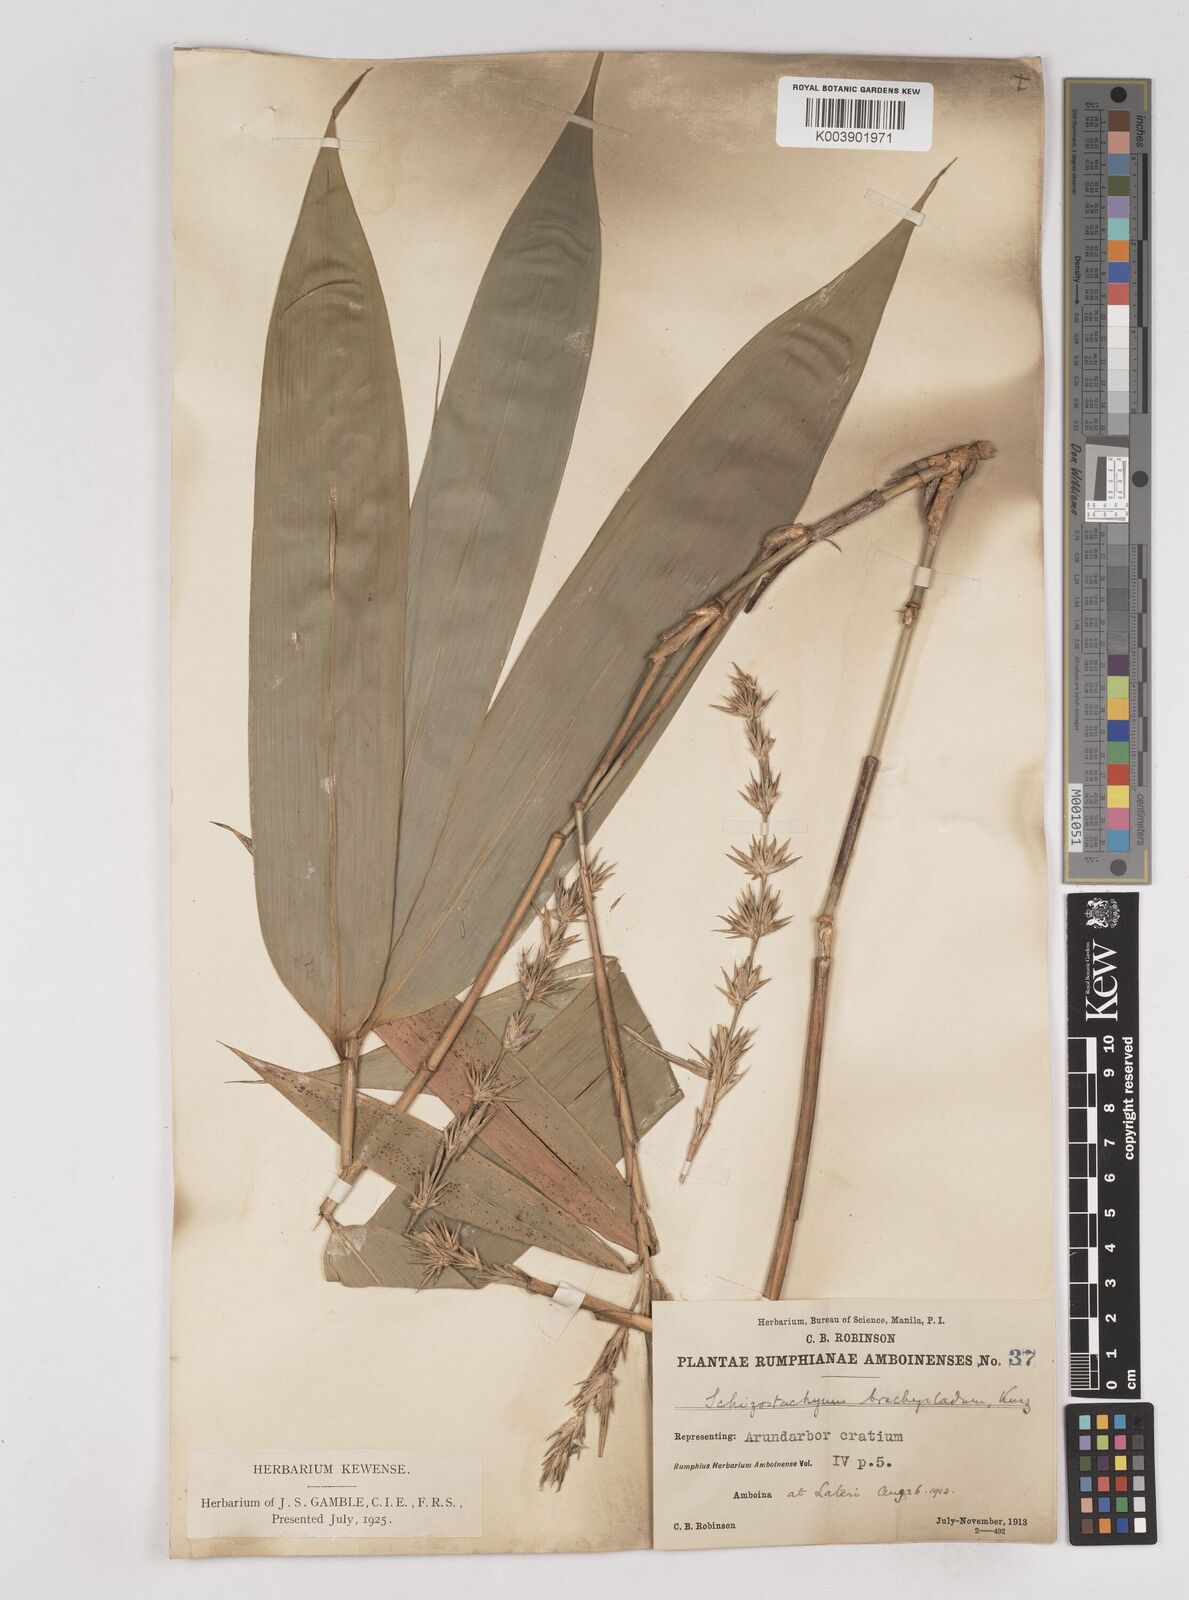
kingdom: Plantae
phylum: Tracheophyta
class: Liliopsida
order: Poales
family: Poaceae
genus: Schizostachyum
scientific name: Schizostachyum brachycladum
